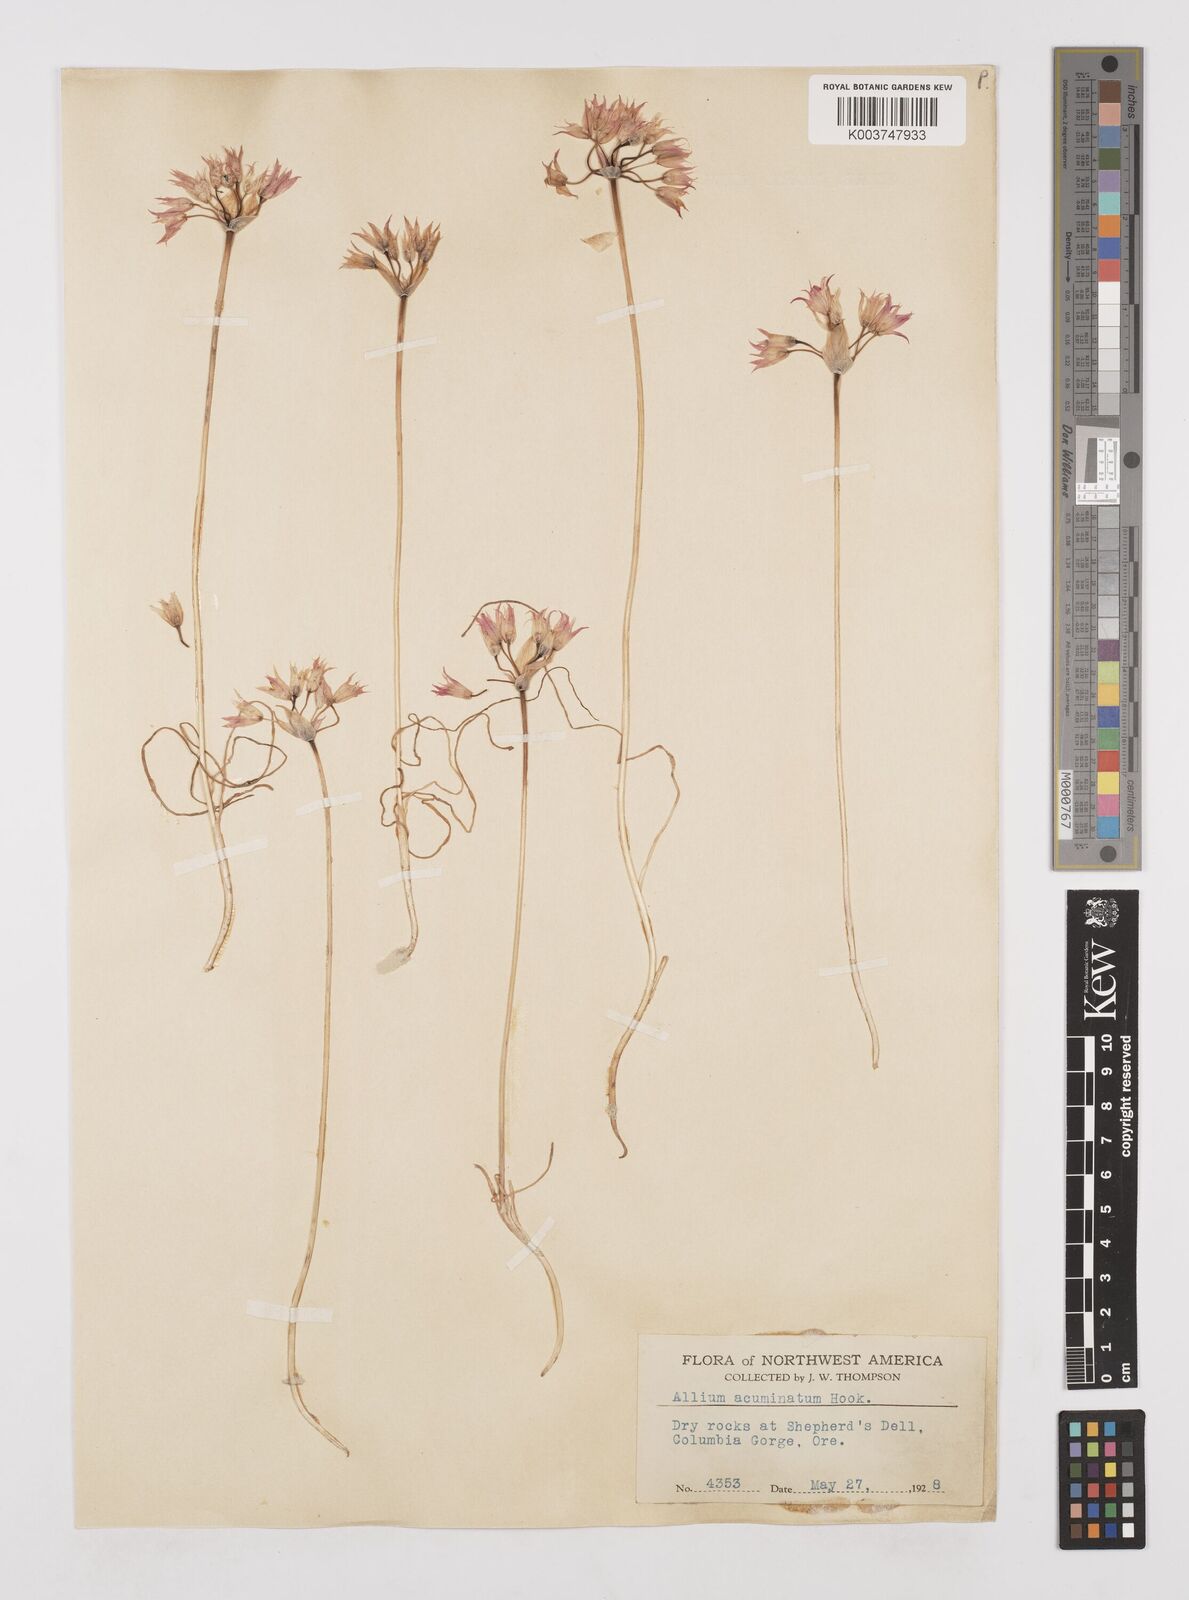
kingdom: Plantae
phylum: Tracheophyta
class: Liliopsida
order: Asparagales
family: Amaryllidaceae
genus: Allium
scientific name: Allium acuminatum
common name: Hooker's onion
